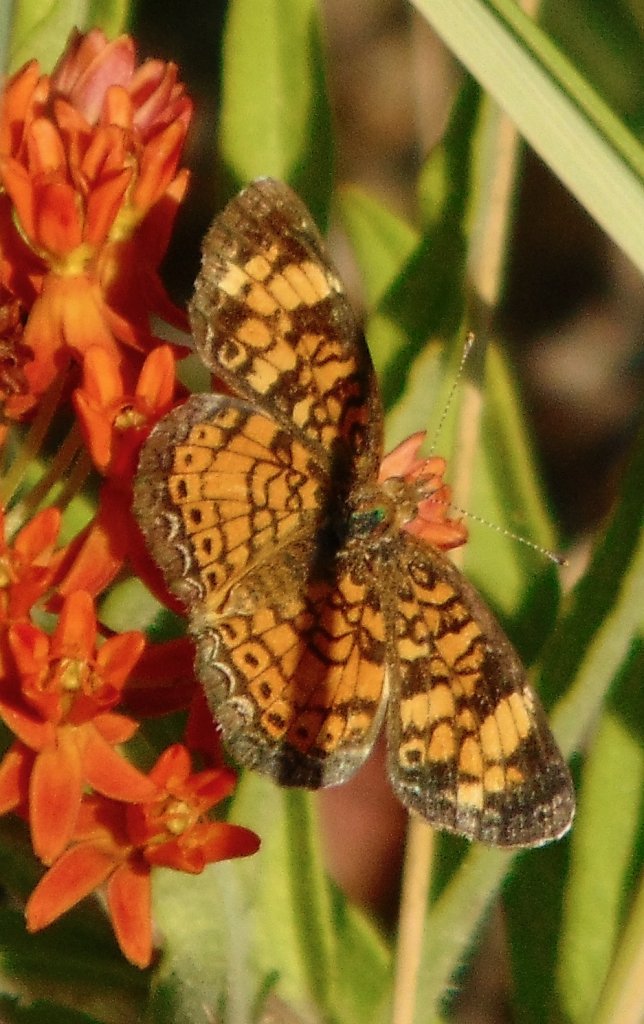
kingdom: Animalia
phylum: Arthropoda
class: Insecta
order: Lepidoptera
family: Nymphalidae
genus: Phyciodes
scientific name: Phyciodes tharos
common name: Pearl Crescent
